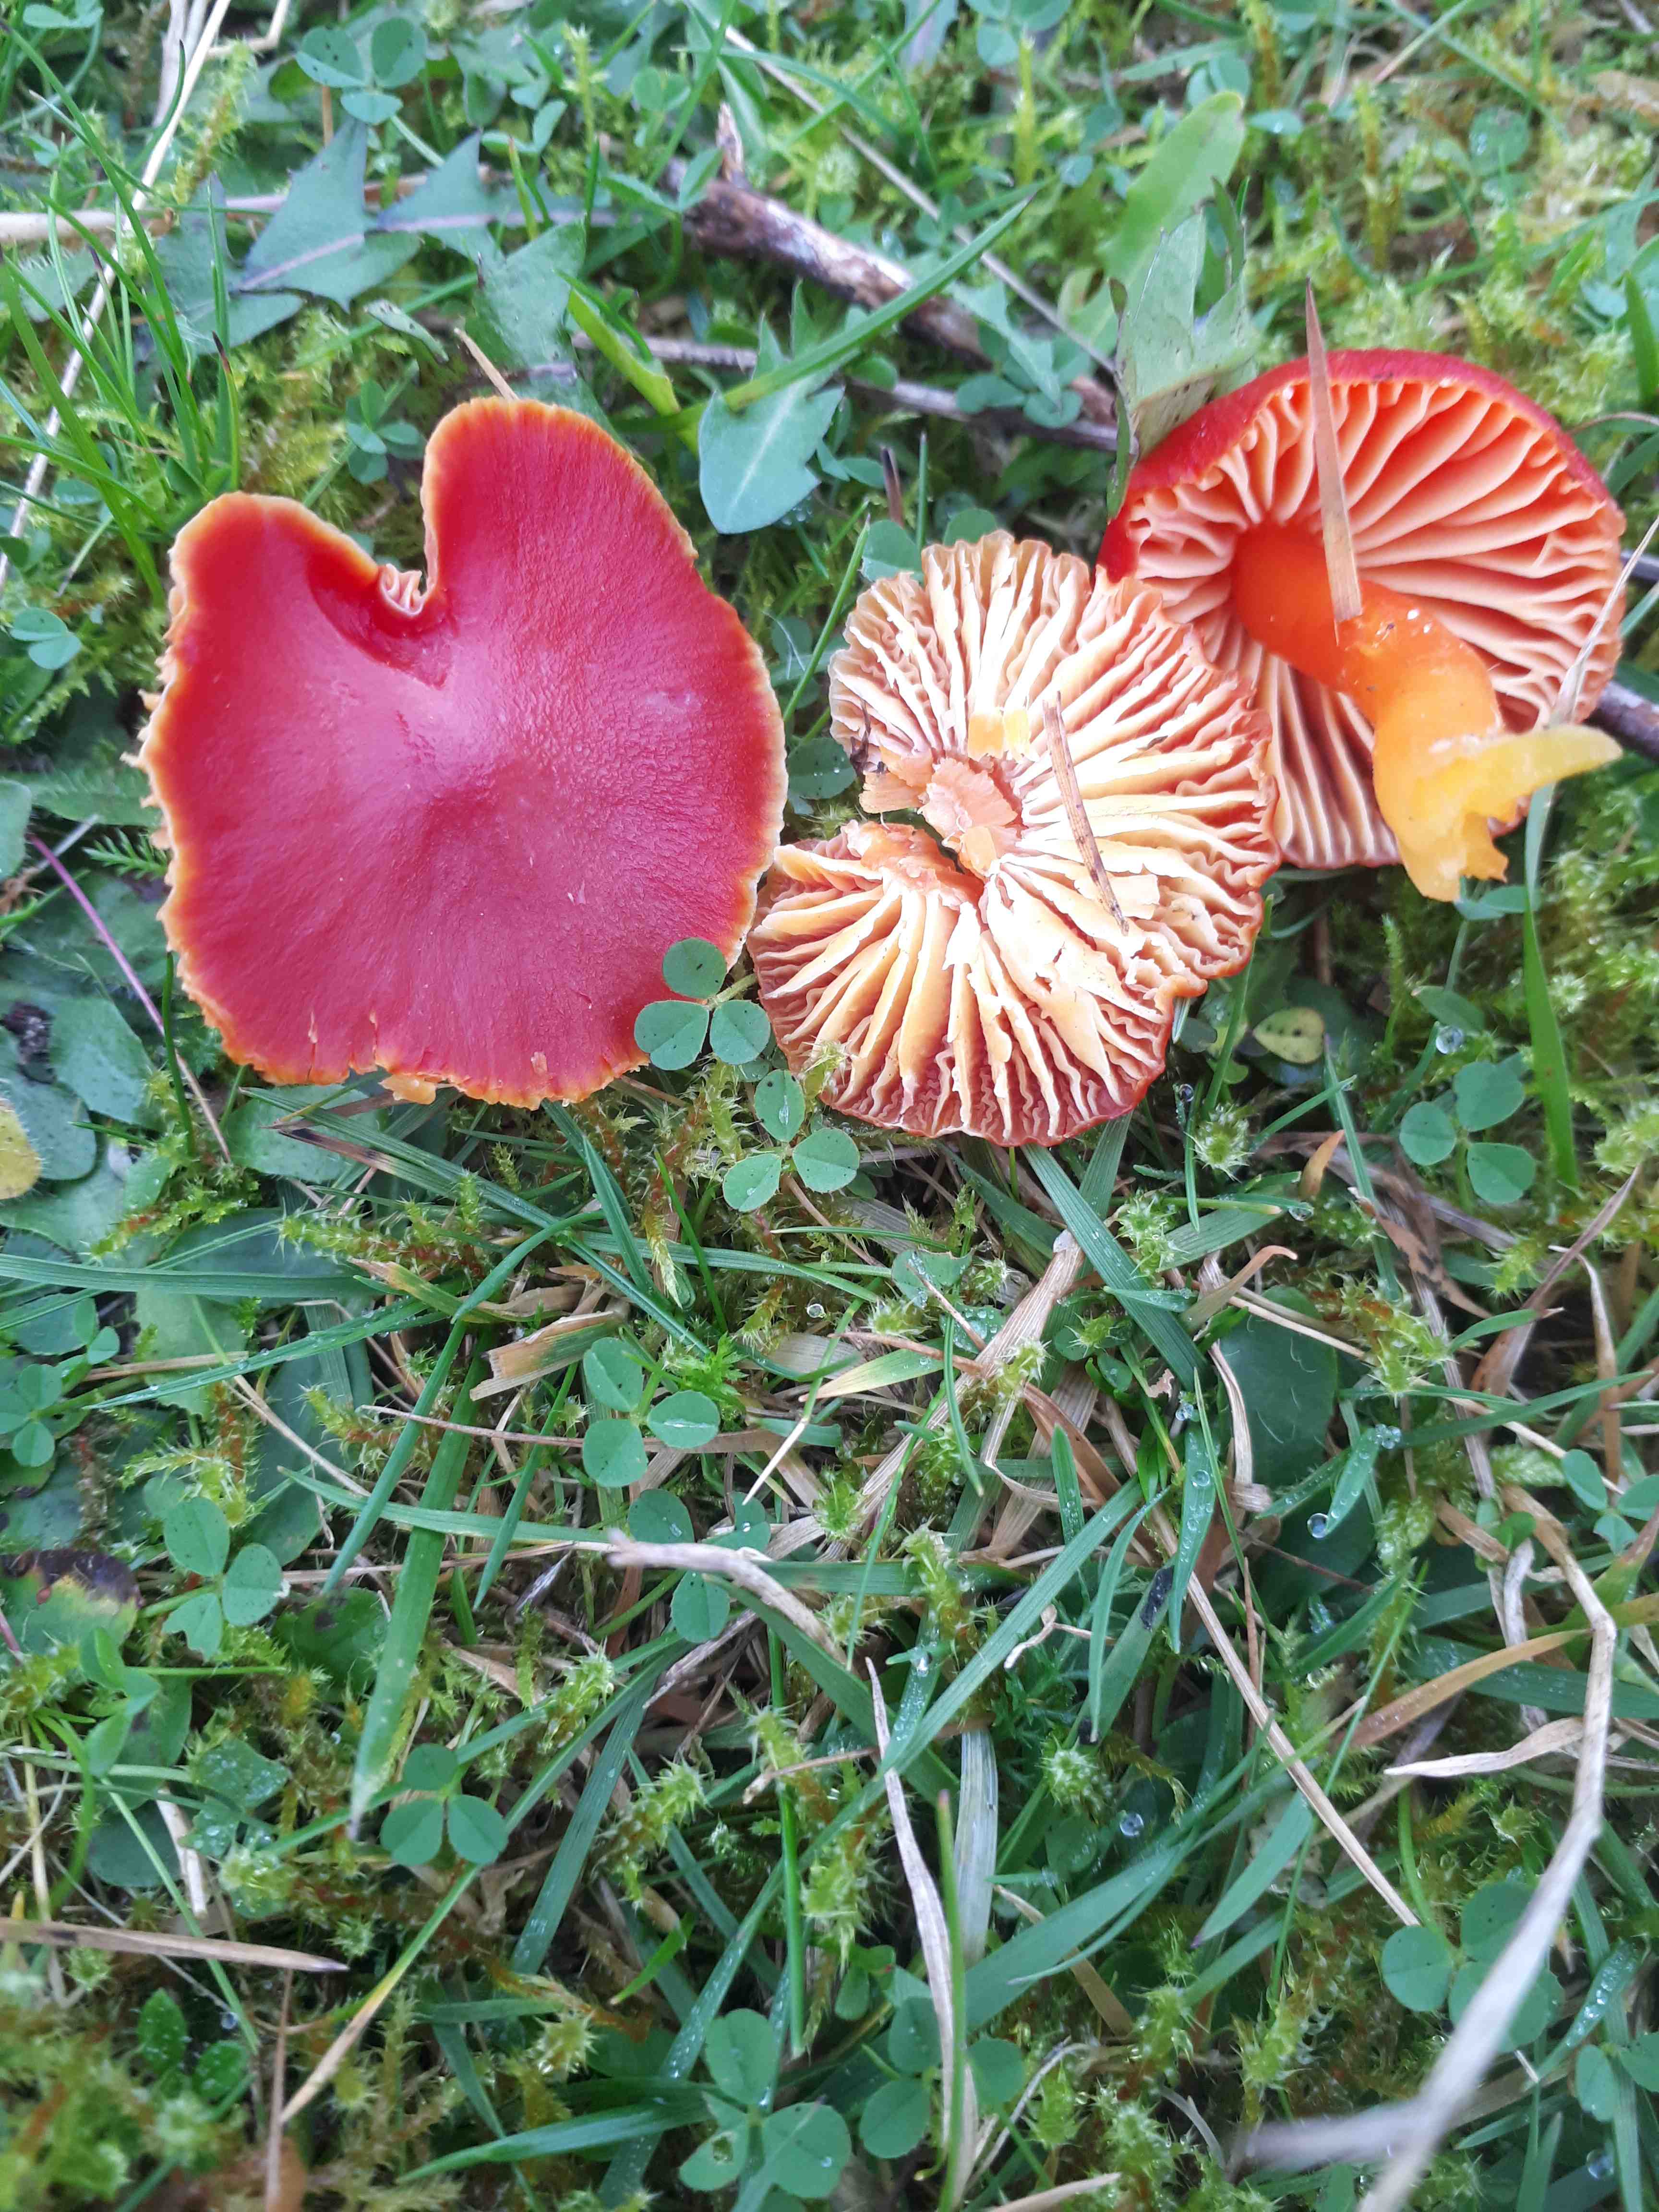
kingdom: Fungi
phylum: Basidiomycota
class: Agaricomycetes
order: Agaricales
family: Hygrophoraceae
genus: Hygrocybe
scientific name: Hygrocybe coccinea
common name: cinnober-vokshat
